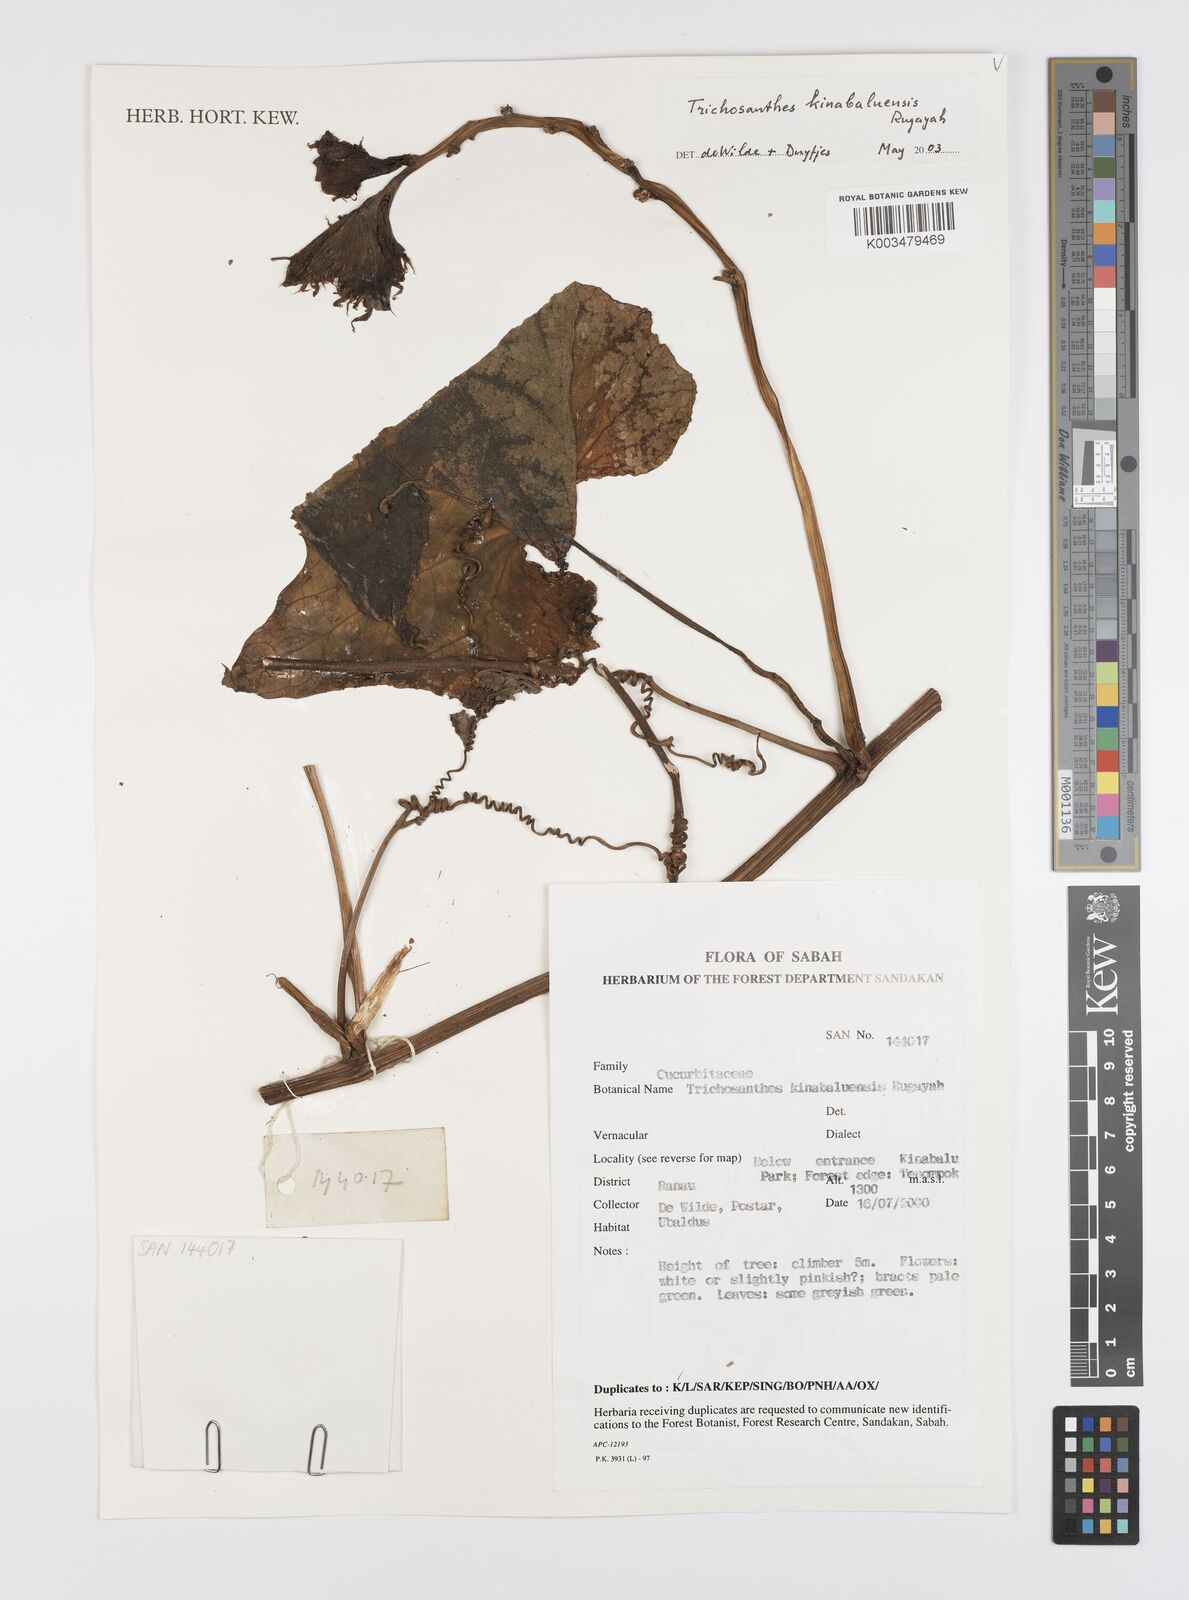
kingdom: Plantae
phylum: Tracheophyta
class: Magnoliopsida
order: Cucurbitales
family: Cucurbitaceae
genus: Trichosanthes
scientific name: Trichosanthes kinabaluensis
